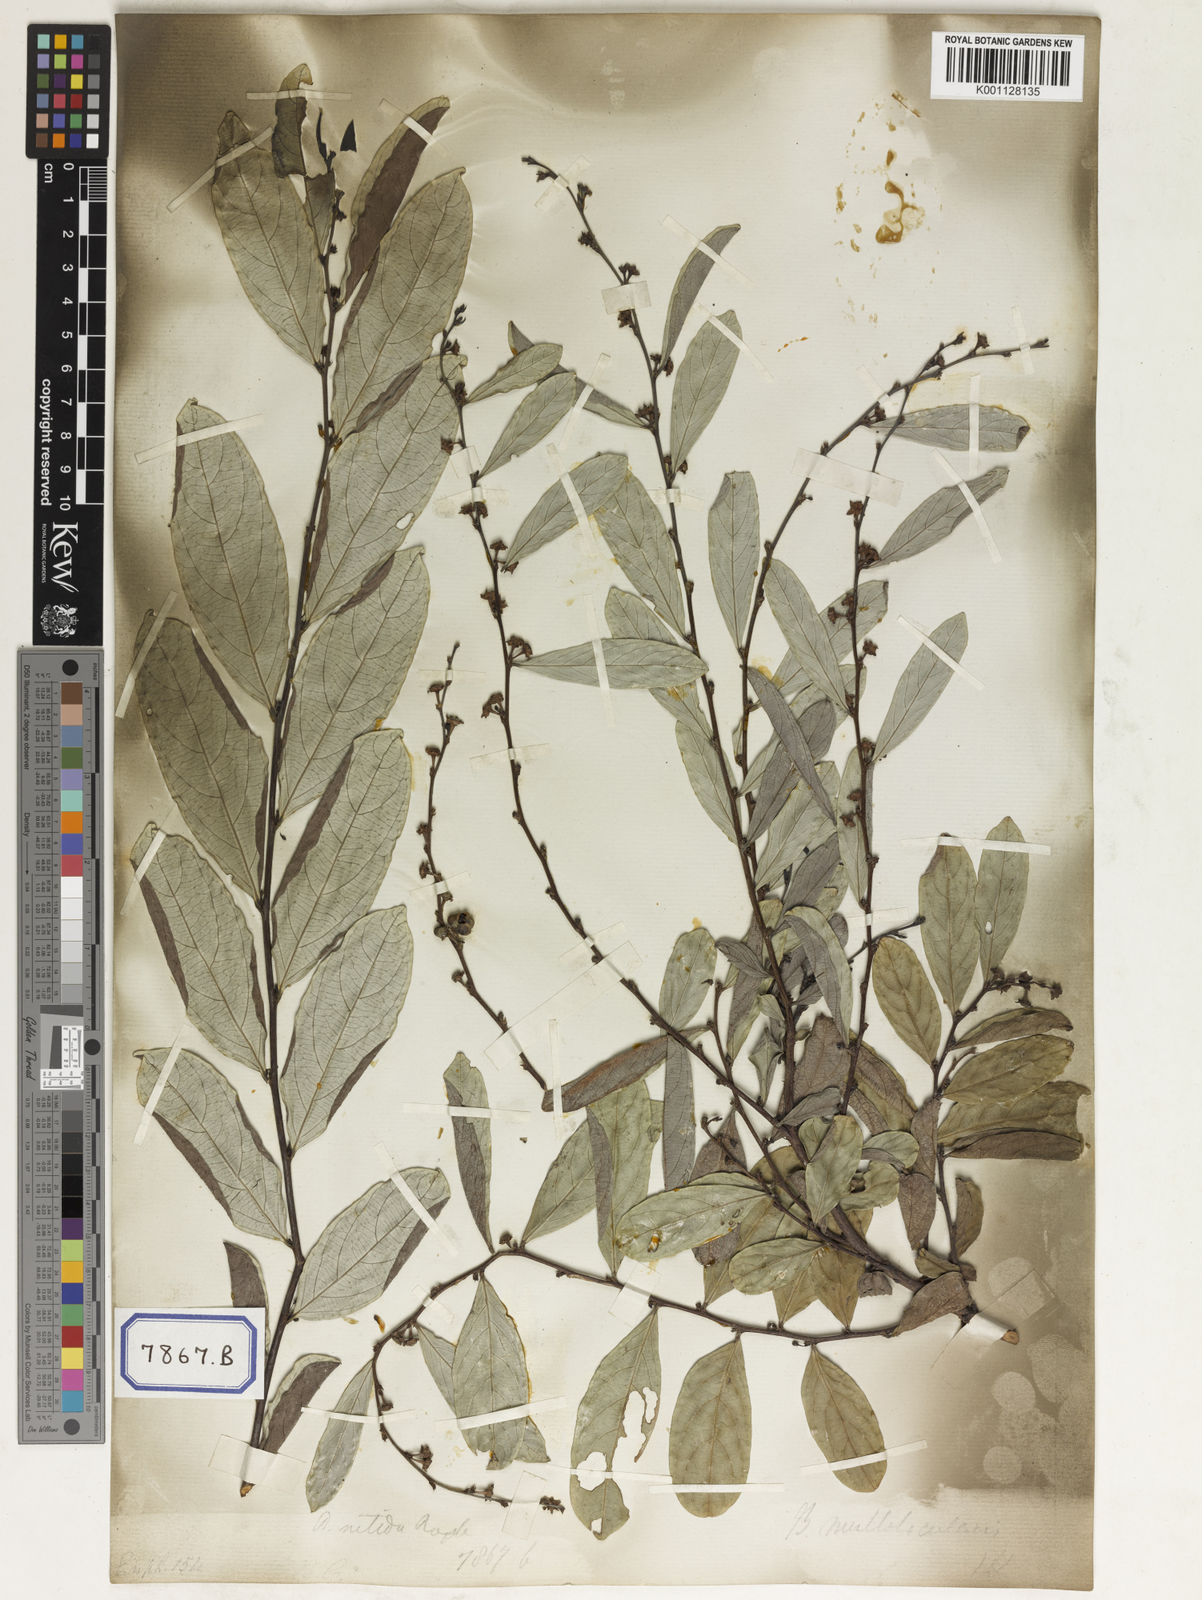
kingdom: Plantae
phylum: Tracheophyta
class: Magnoliopsida
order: Malpighiales
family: Euphorbiaceae
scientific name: Euphorbiaceae
